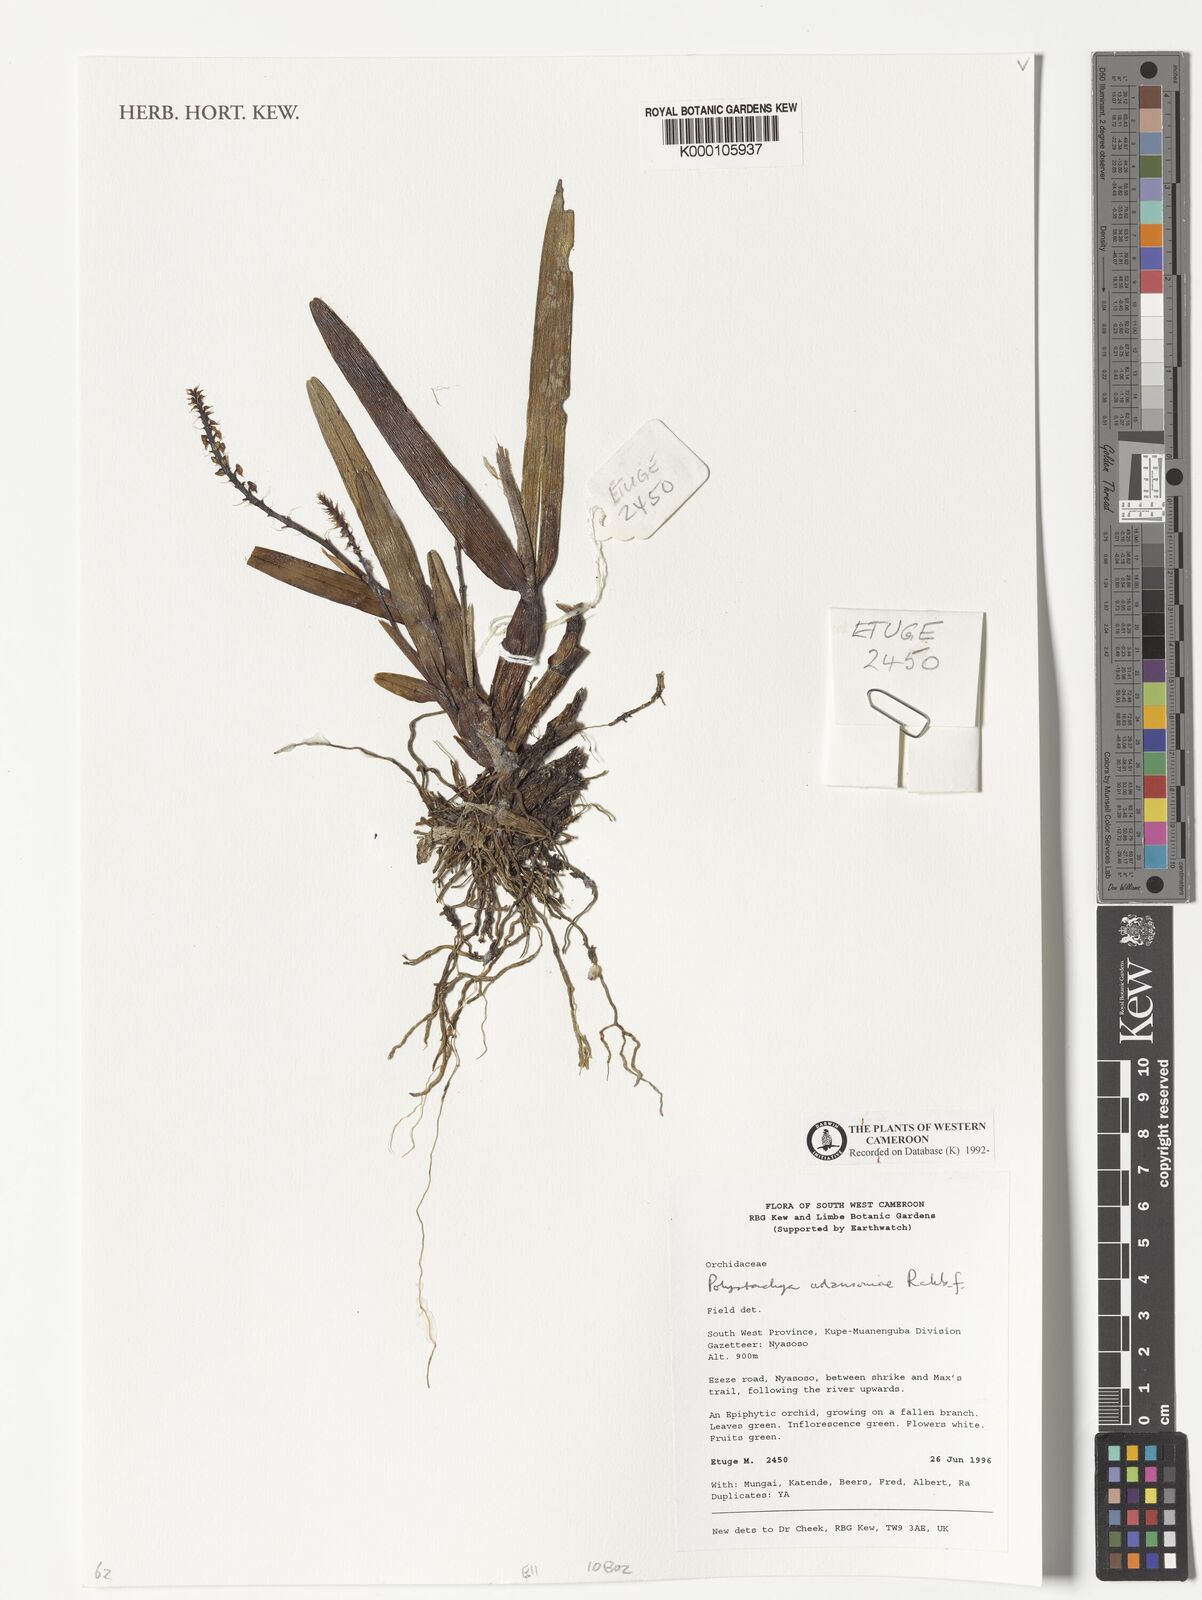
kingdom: Plantae
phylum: Tracheophyta
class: Liliopsida
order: Asparagales
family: Orchidaceae
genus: Polystachya
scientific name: Polystachya adansoniae
